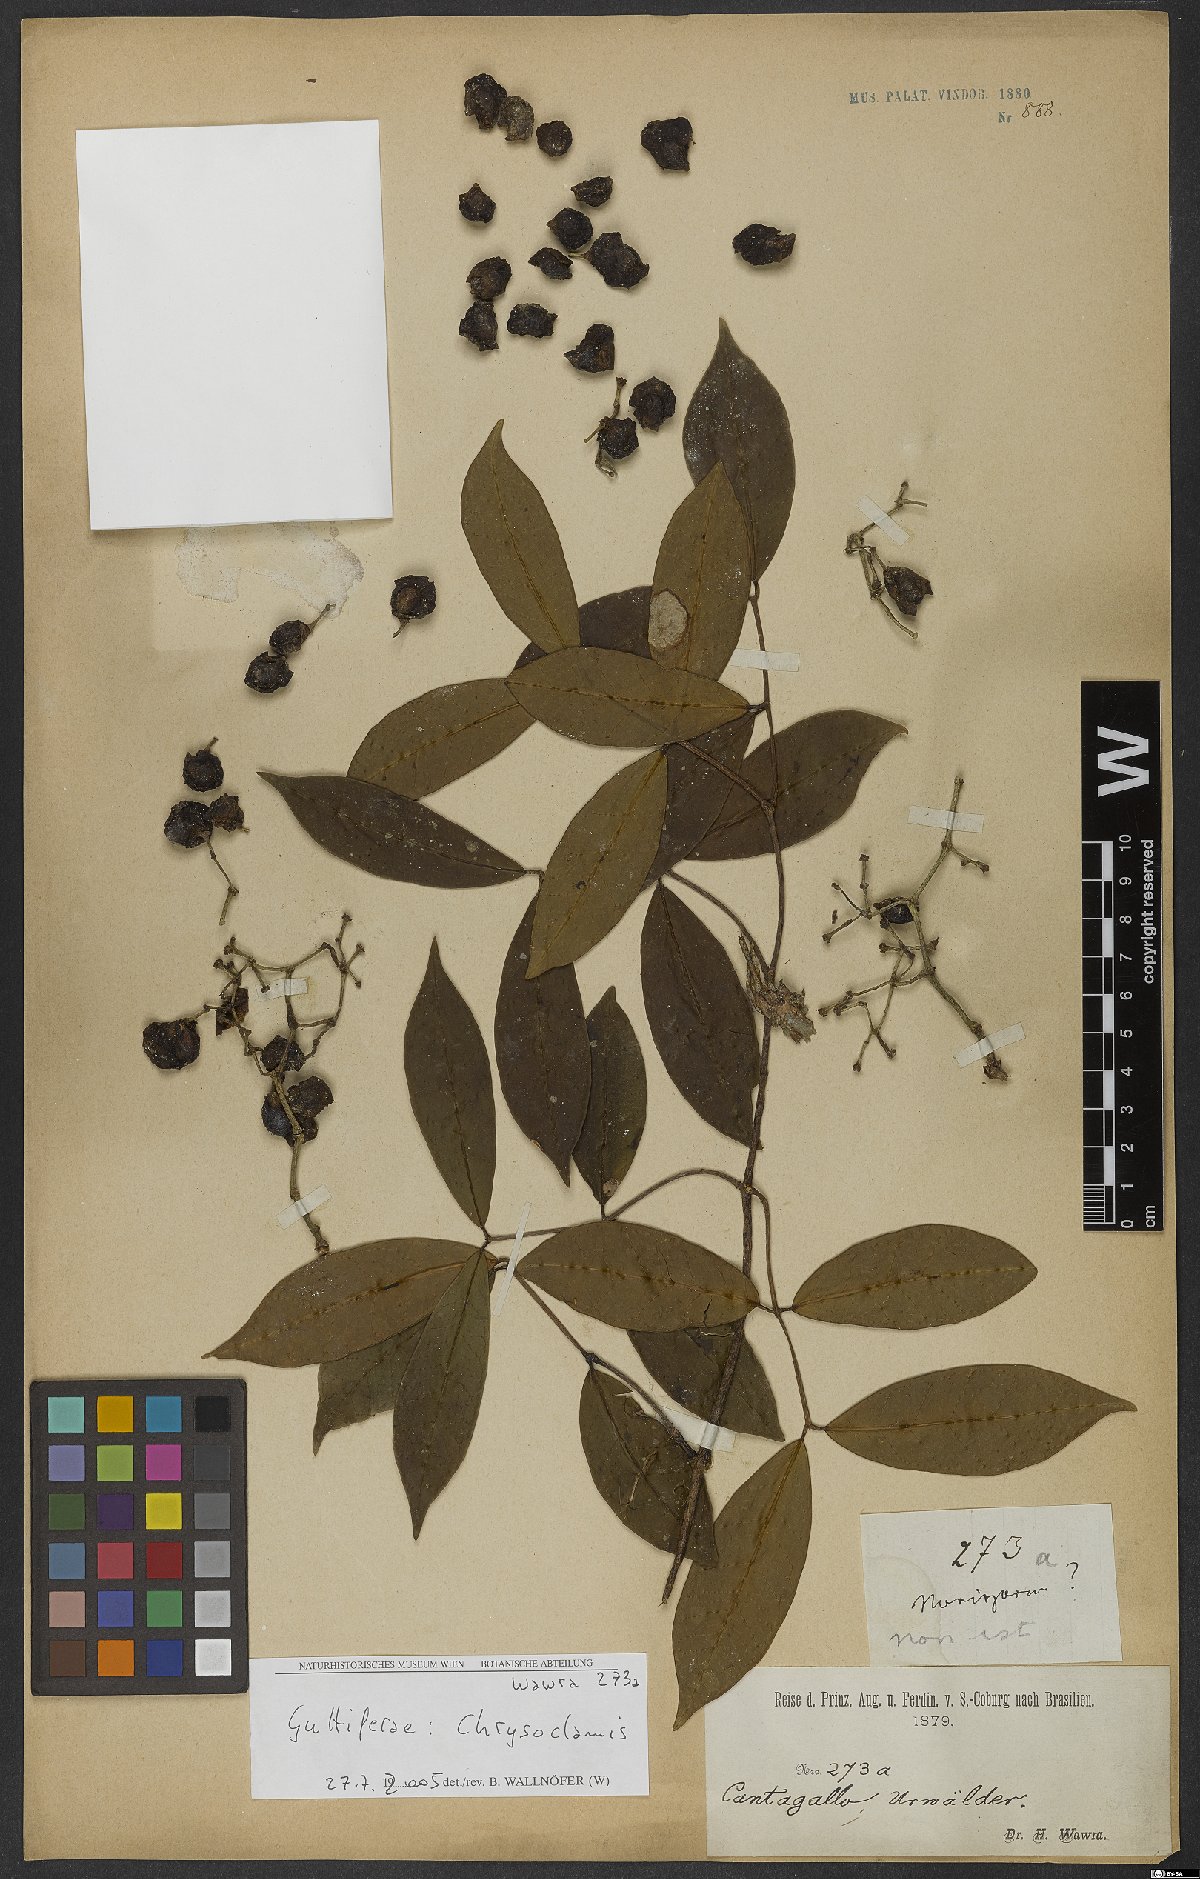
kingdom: Plantae
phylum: Tracheophyta
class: Magnoliopsida
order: Malpighiales
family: Clusiaceae
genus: Chrysochlamys
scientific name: Chrysochlamys
